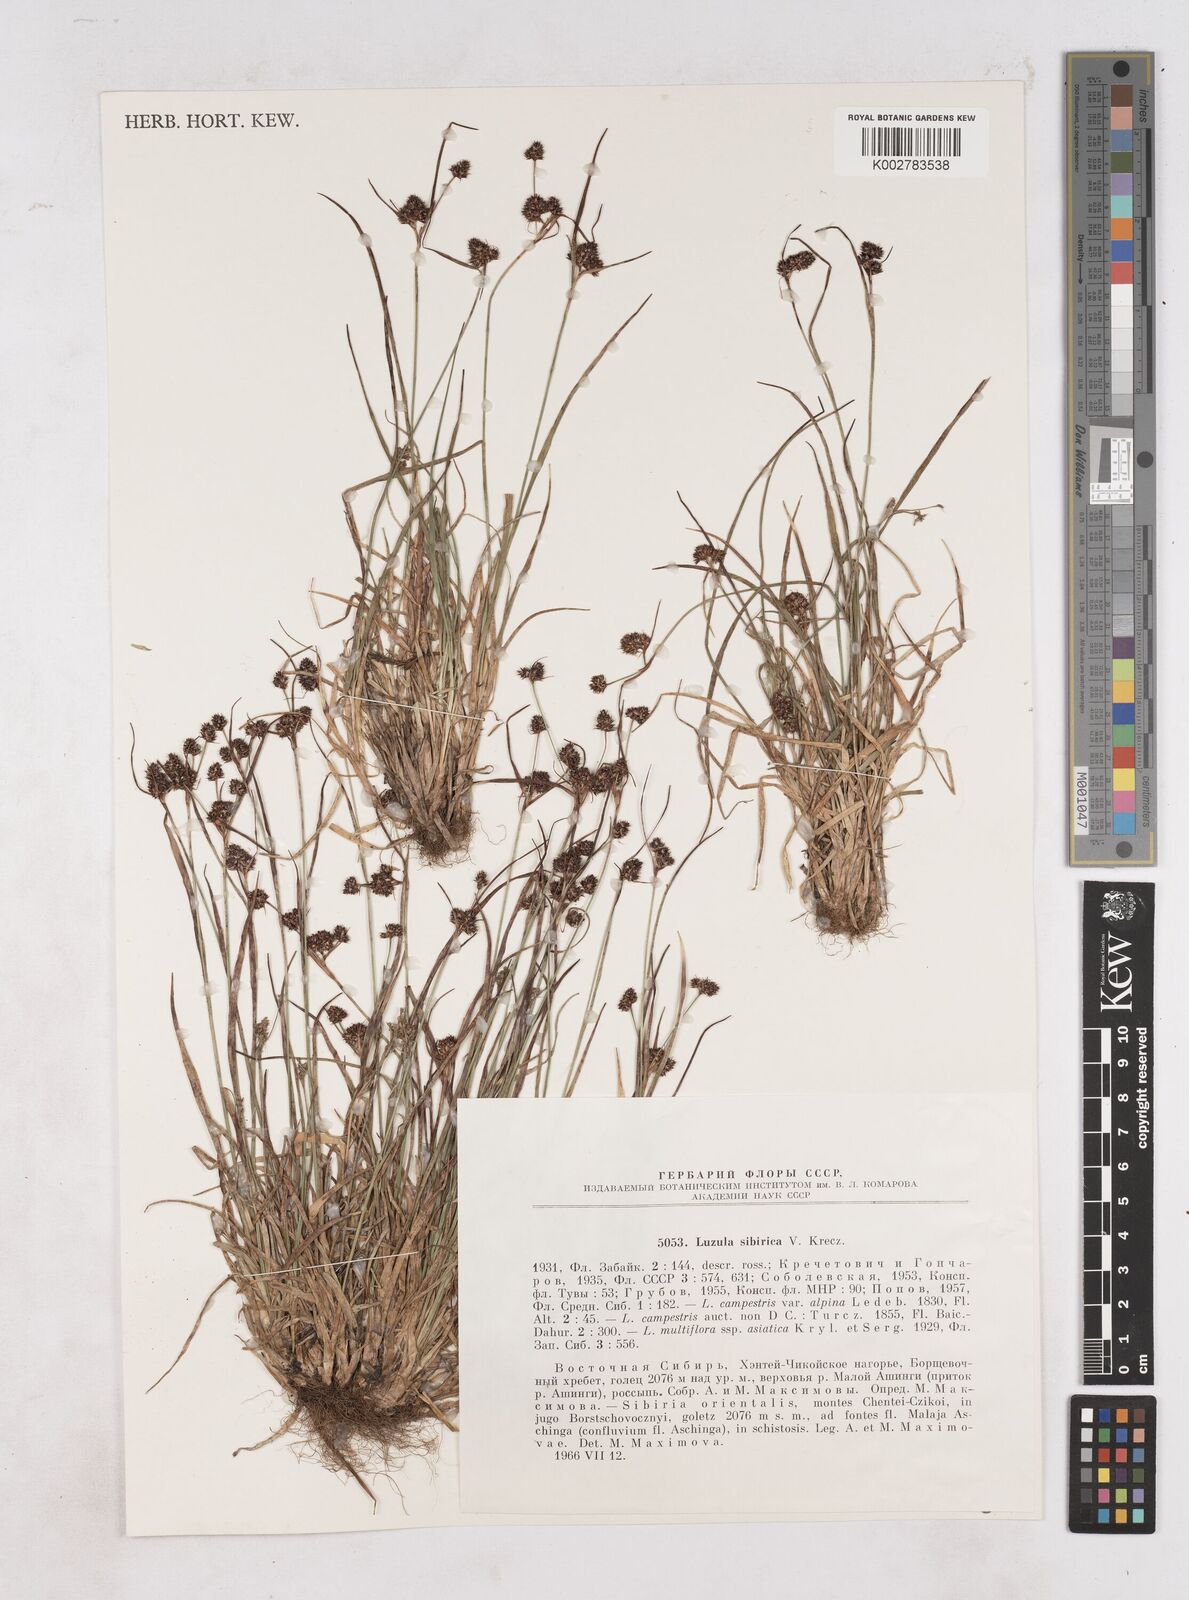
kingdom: Plantae
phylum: Tracheophyta
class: Liliopsida
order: Poales
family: Juncaceae
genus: Luzula
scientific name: Luzula multiflora
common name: Heath wood-rush
